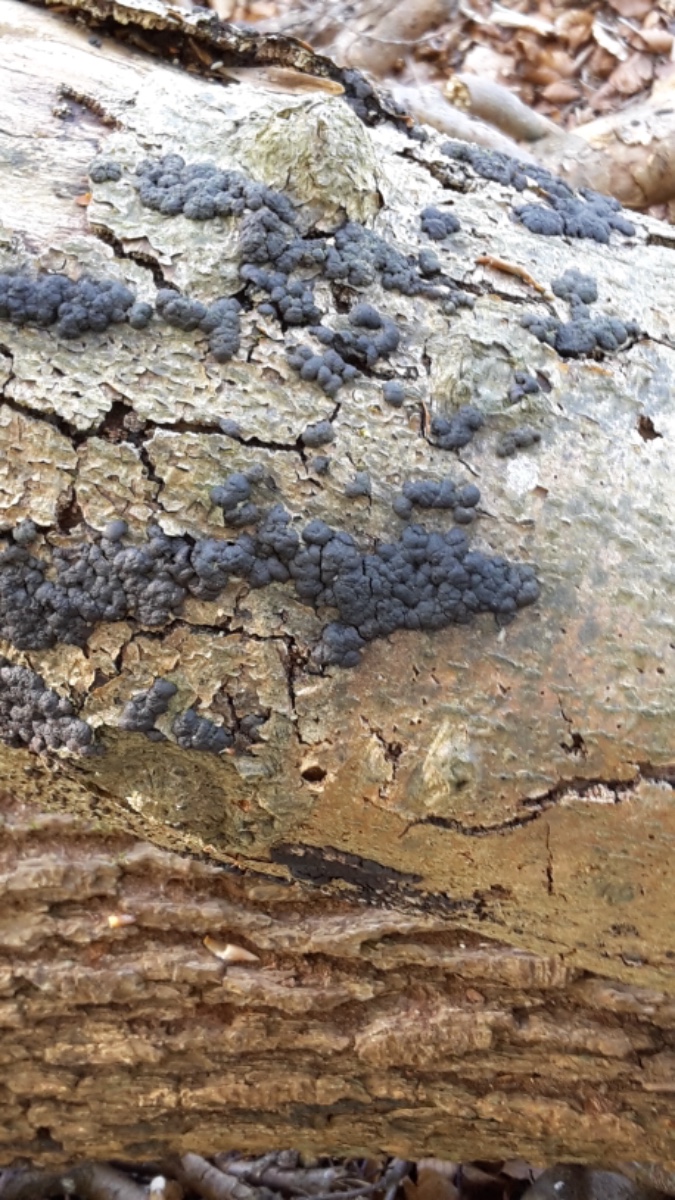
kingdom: Fungi
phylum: Ascomycota
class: Sordariomycetes
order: Xylariales
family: Hypoxylaceae
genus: Jackrogersella
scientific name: Jackrogersella cohaerens
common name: sammenflydende kulbær
